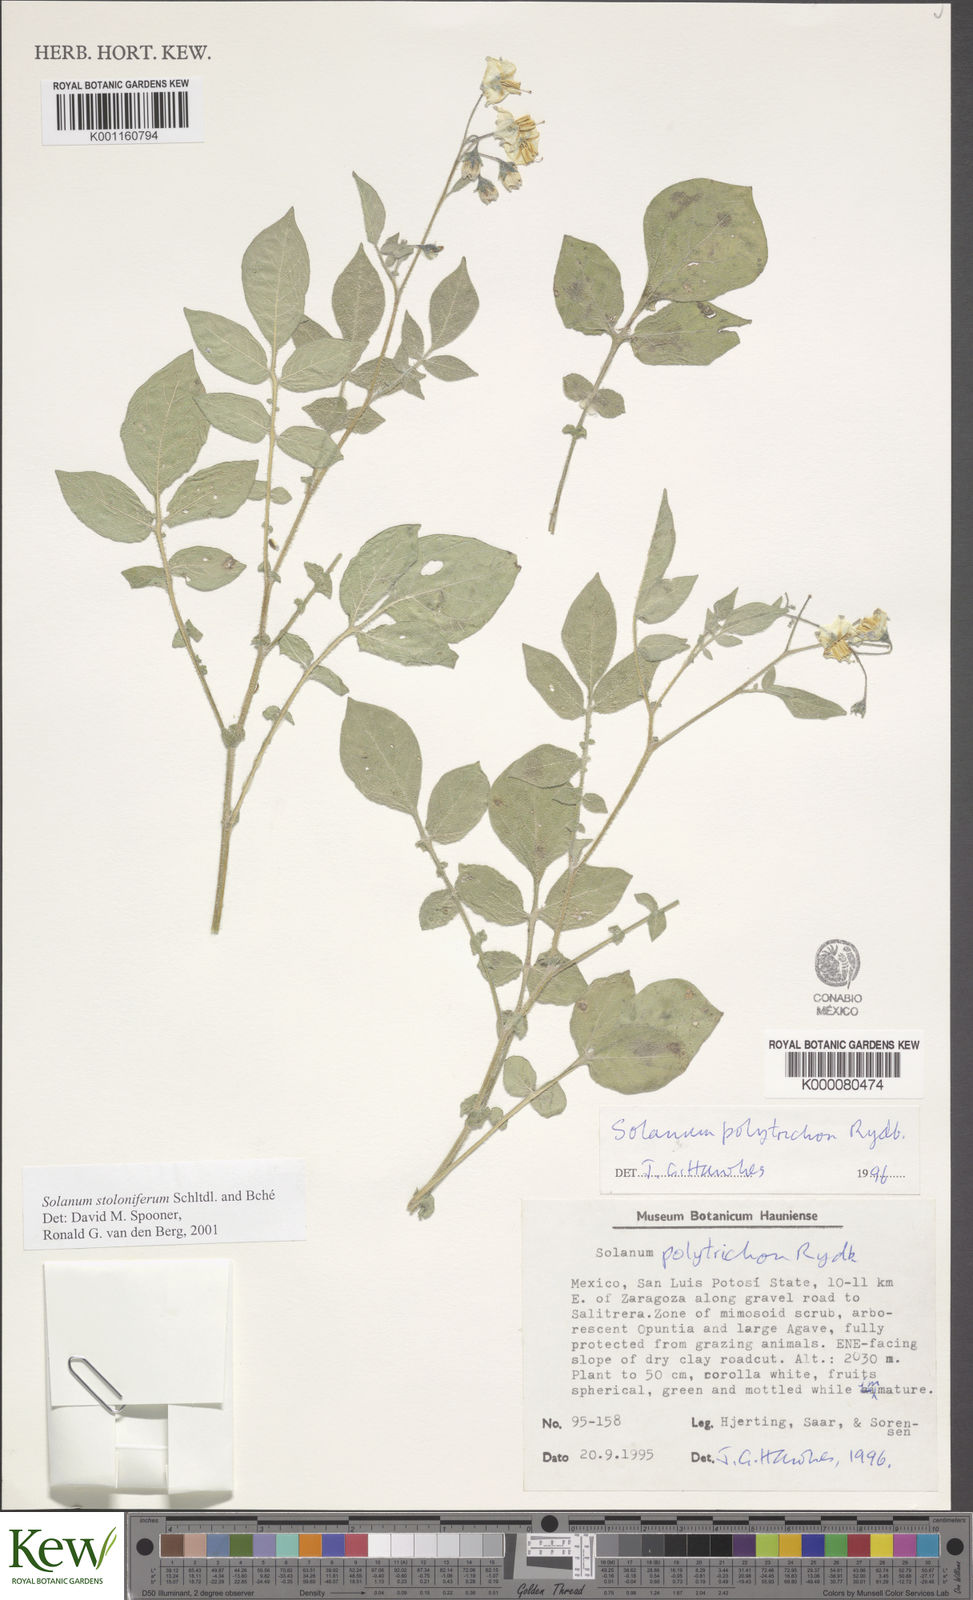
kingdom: Plantae
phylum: Tracheophyta
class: Magnoliopsida
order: Solanales
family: Solanaceae
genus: Solanum
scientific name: Solanum stoloniferum
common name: Fendler's nighshade
